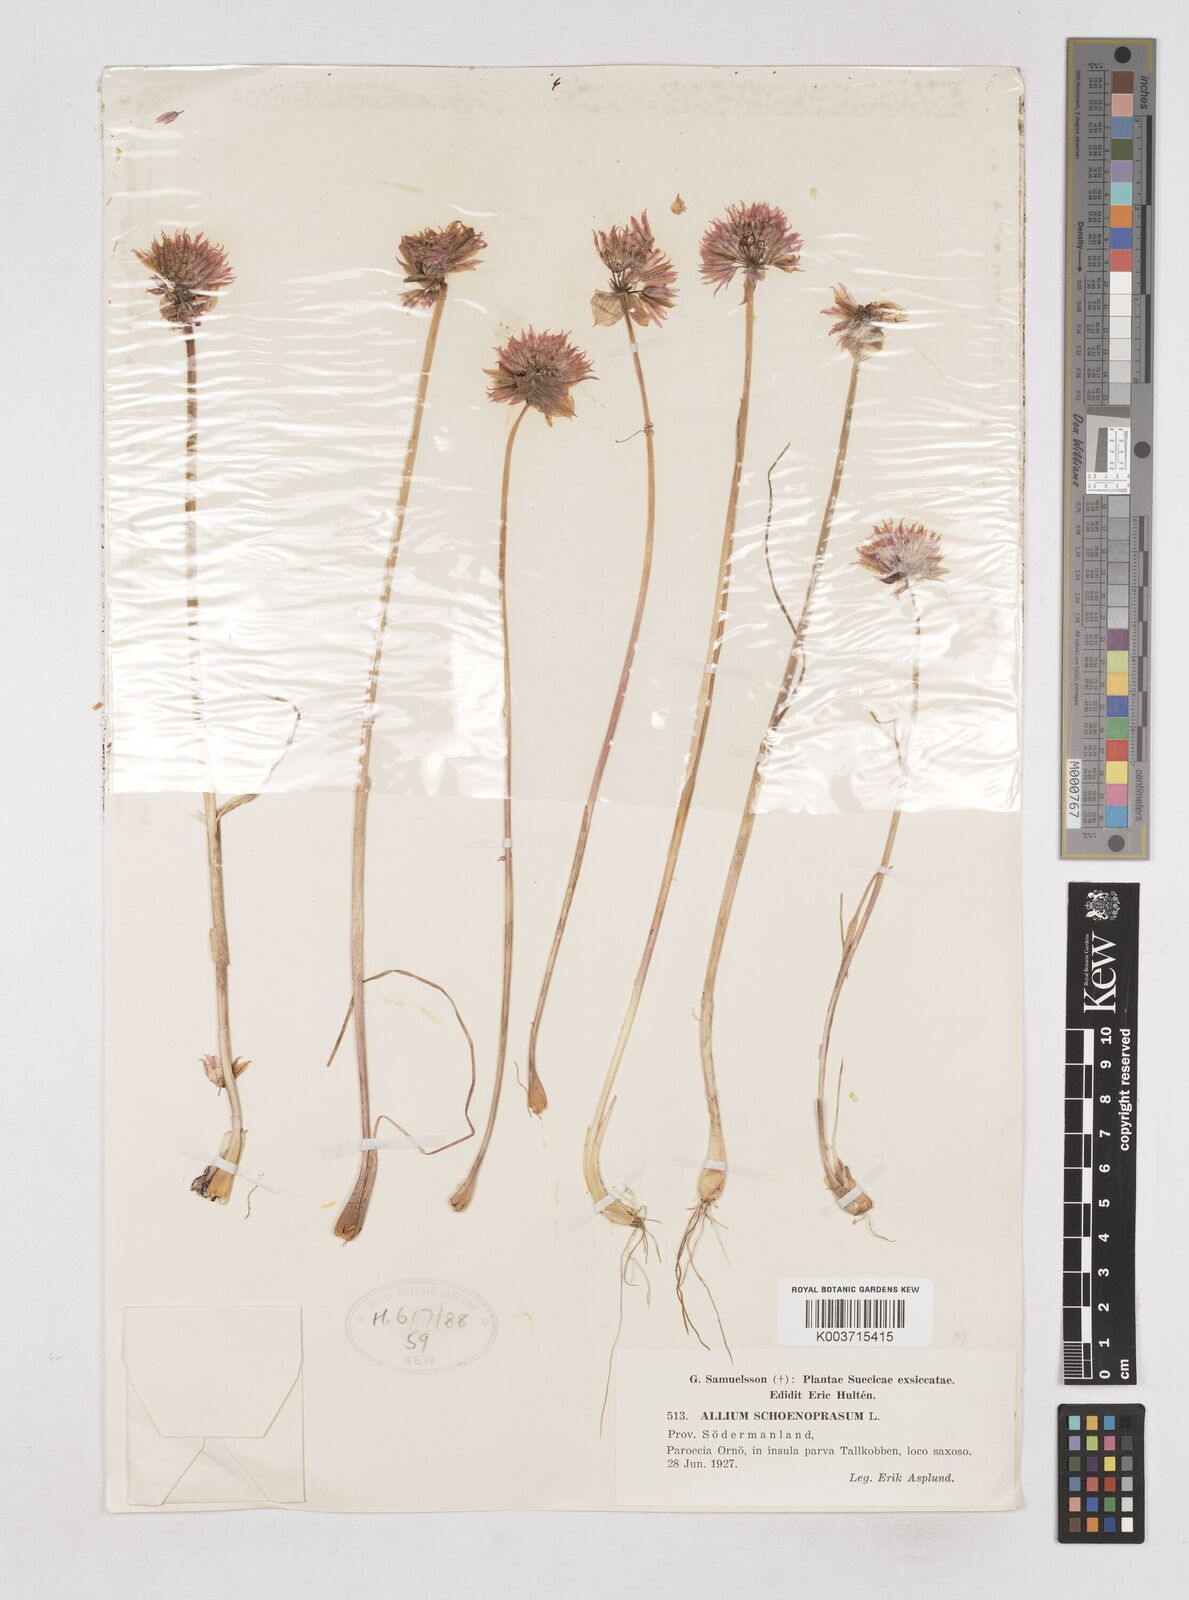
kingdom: Plantae
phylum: Tracheophyta
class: Liliopsida
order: Asparagales
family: Amaryllidaceae
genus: Allium
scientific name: Allium schoenoprasum
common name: Chives
